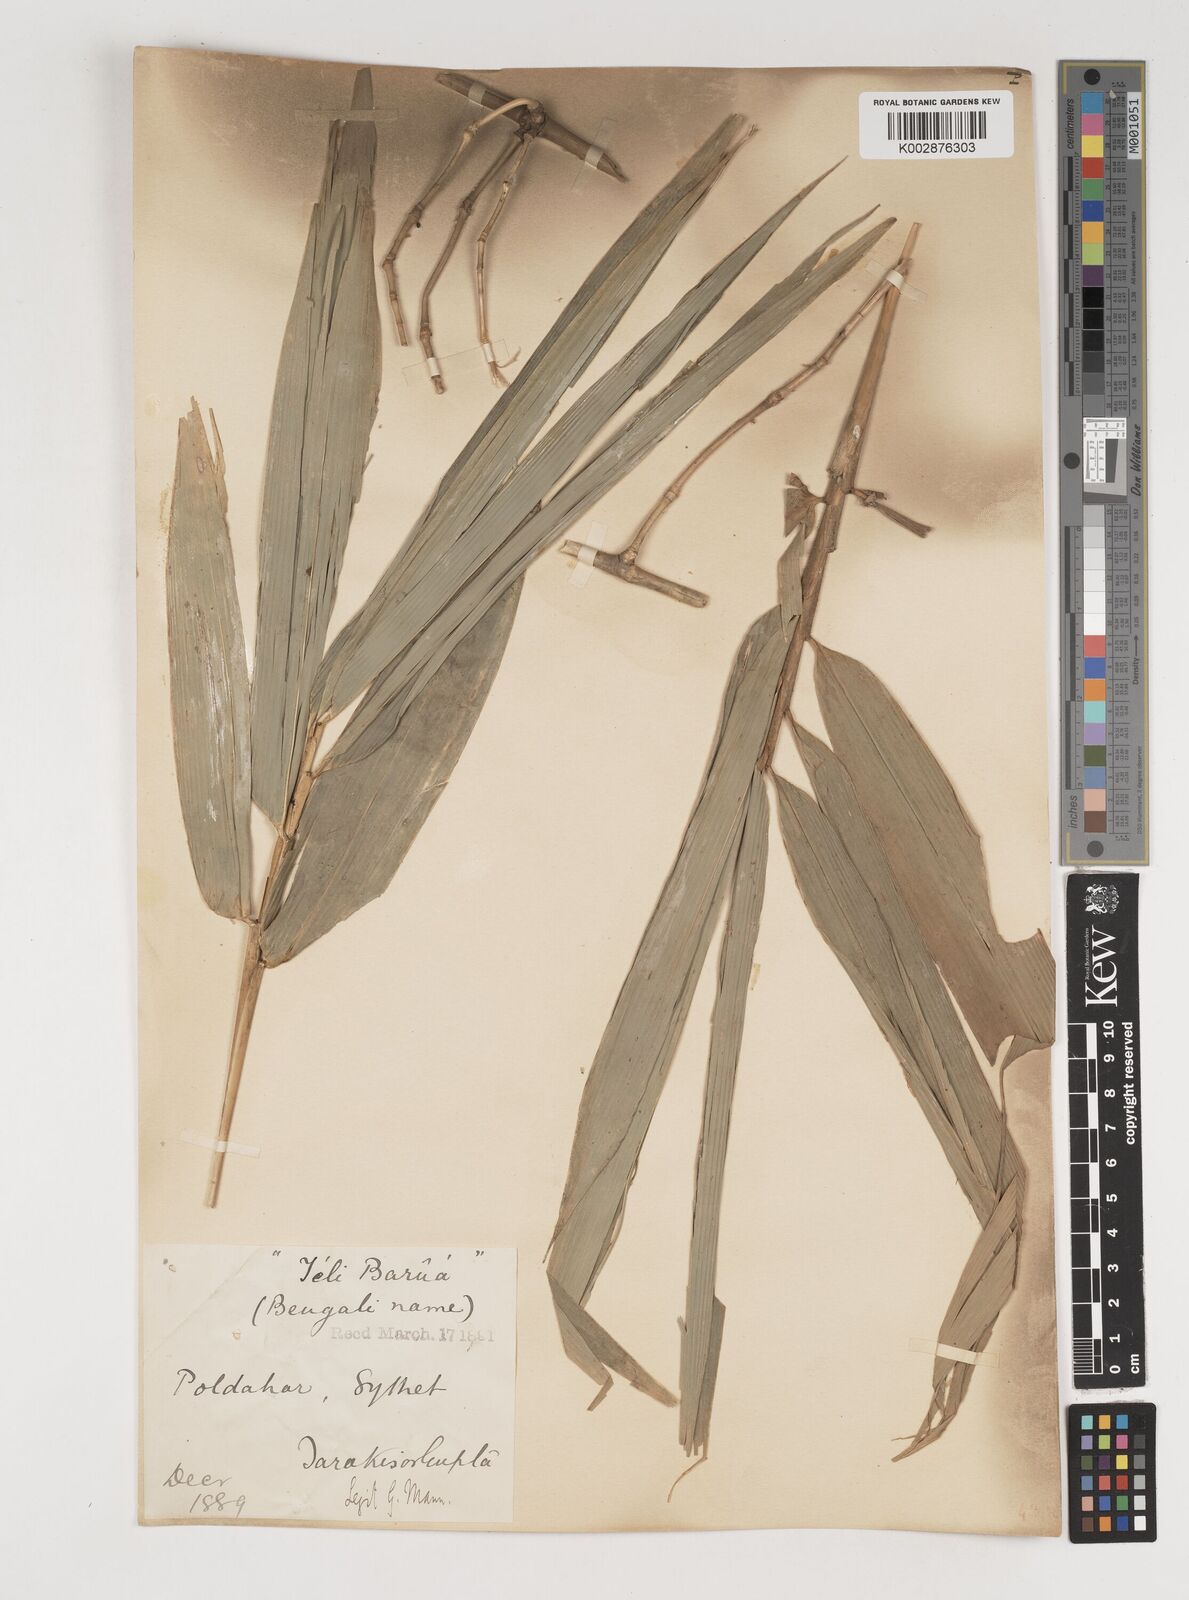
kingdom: Plantae
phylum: Tracheophyta
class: Liliopsida
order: Poales
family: Poaceae
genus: Bambusa
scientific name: Bambusa balcooa
